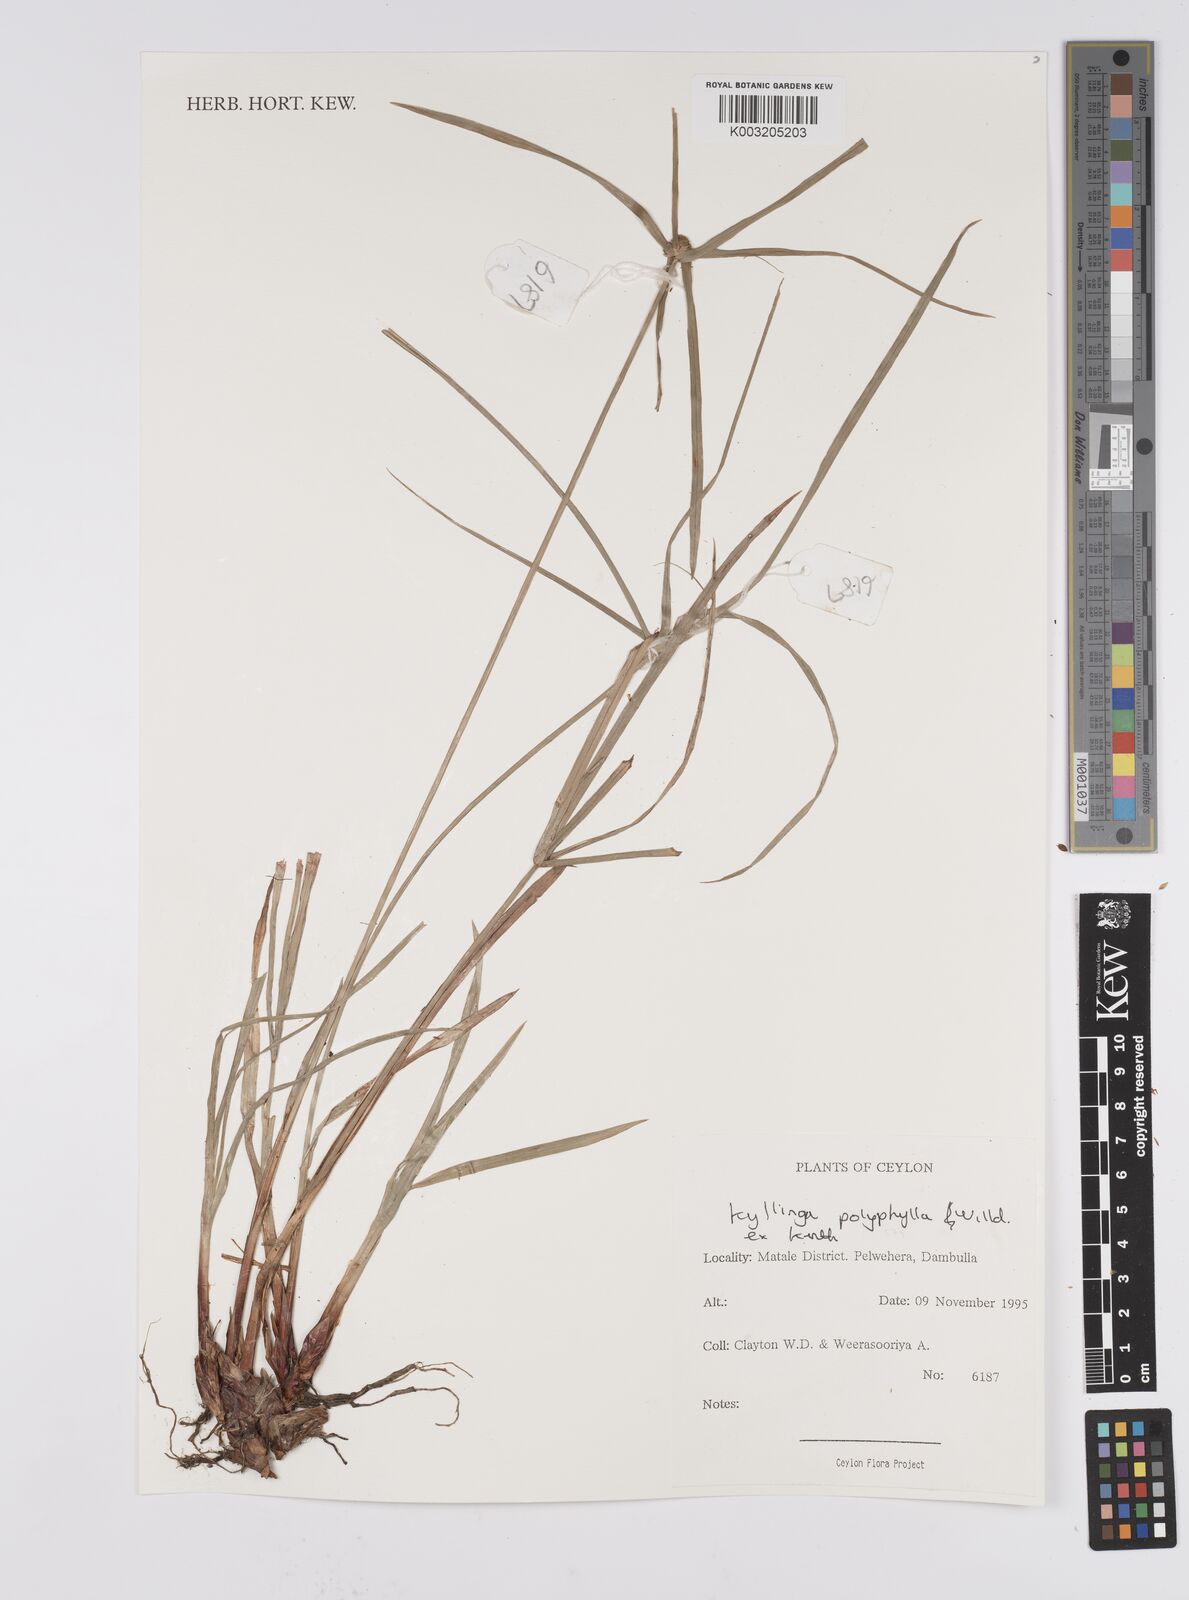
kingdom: Plantae
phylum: Tracheophyta
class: Liliopsida
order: Poales
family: Cyperaceae
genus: Cyperus
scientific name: Cyperus
